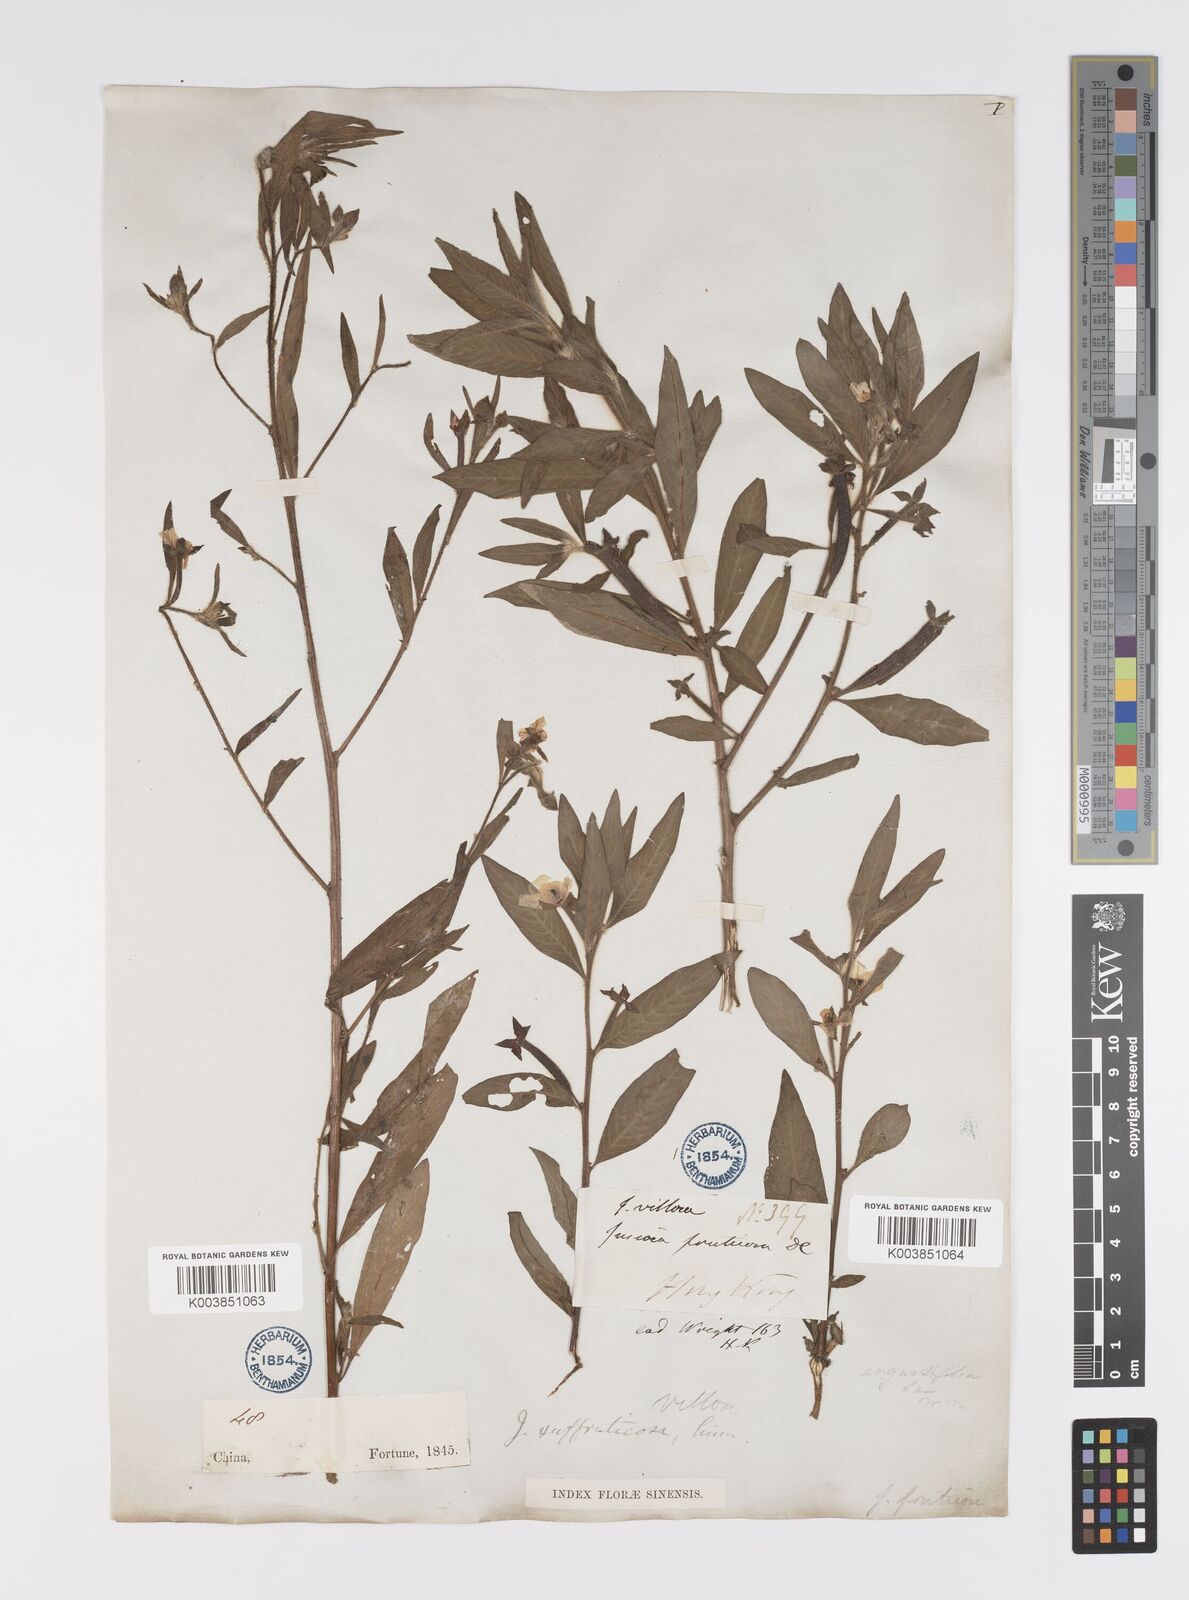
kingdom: Plantae
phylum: Tracheophyta
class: Magnoliopsida
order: Myrtales
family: Onagraceae
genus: Ludwigia
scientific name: Ludwigia octovalvis
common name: Water-primrose
